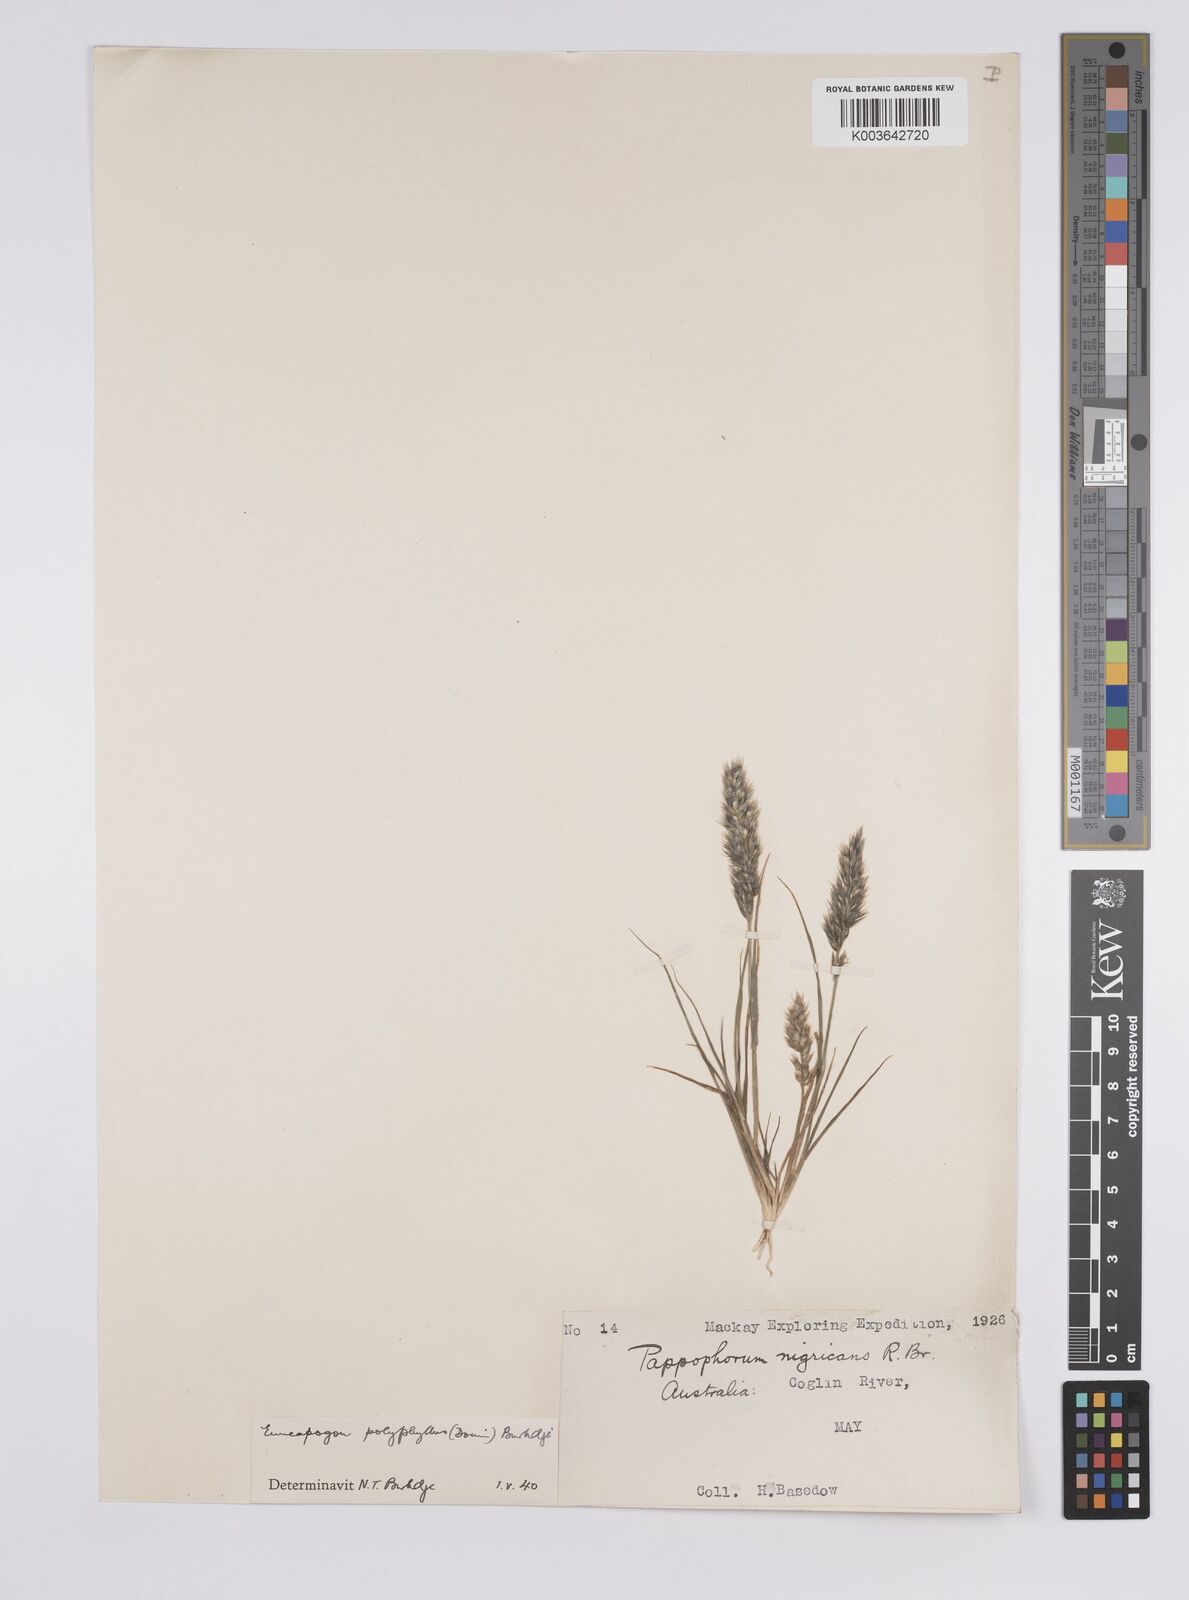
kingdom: Plantae
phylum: Tracheophyta
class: Liliopsida
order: Poales
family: Poaceae
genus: Enneapogon
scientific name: Enneapogon polyphyllus
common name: Leafy nineawn
